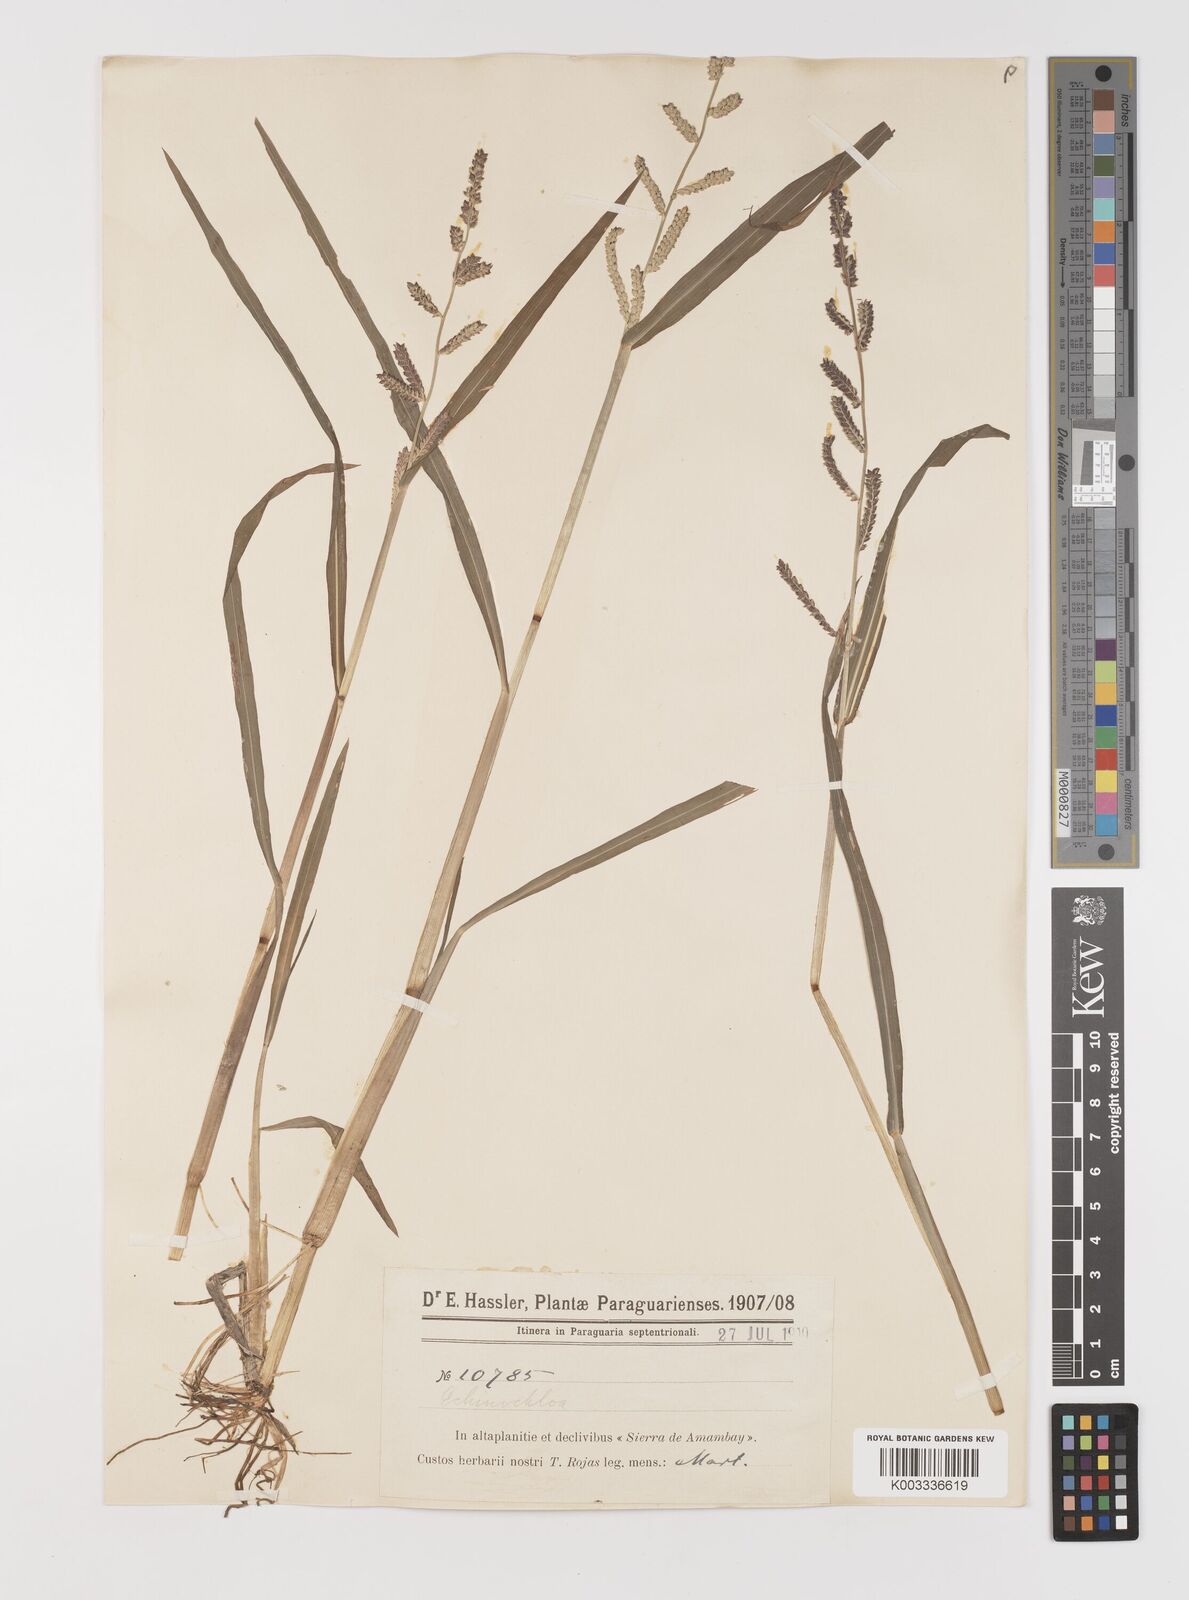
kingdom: Plantae
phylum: Tracheophyta
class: Liliopsida
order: Poales
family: Poaceae
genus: Echinochloa
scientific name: Echinochloa colonum
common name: Jungle rice
